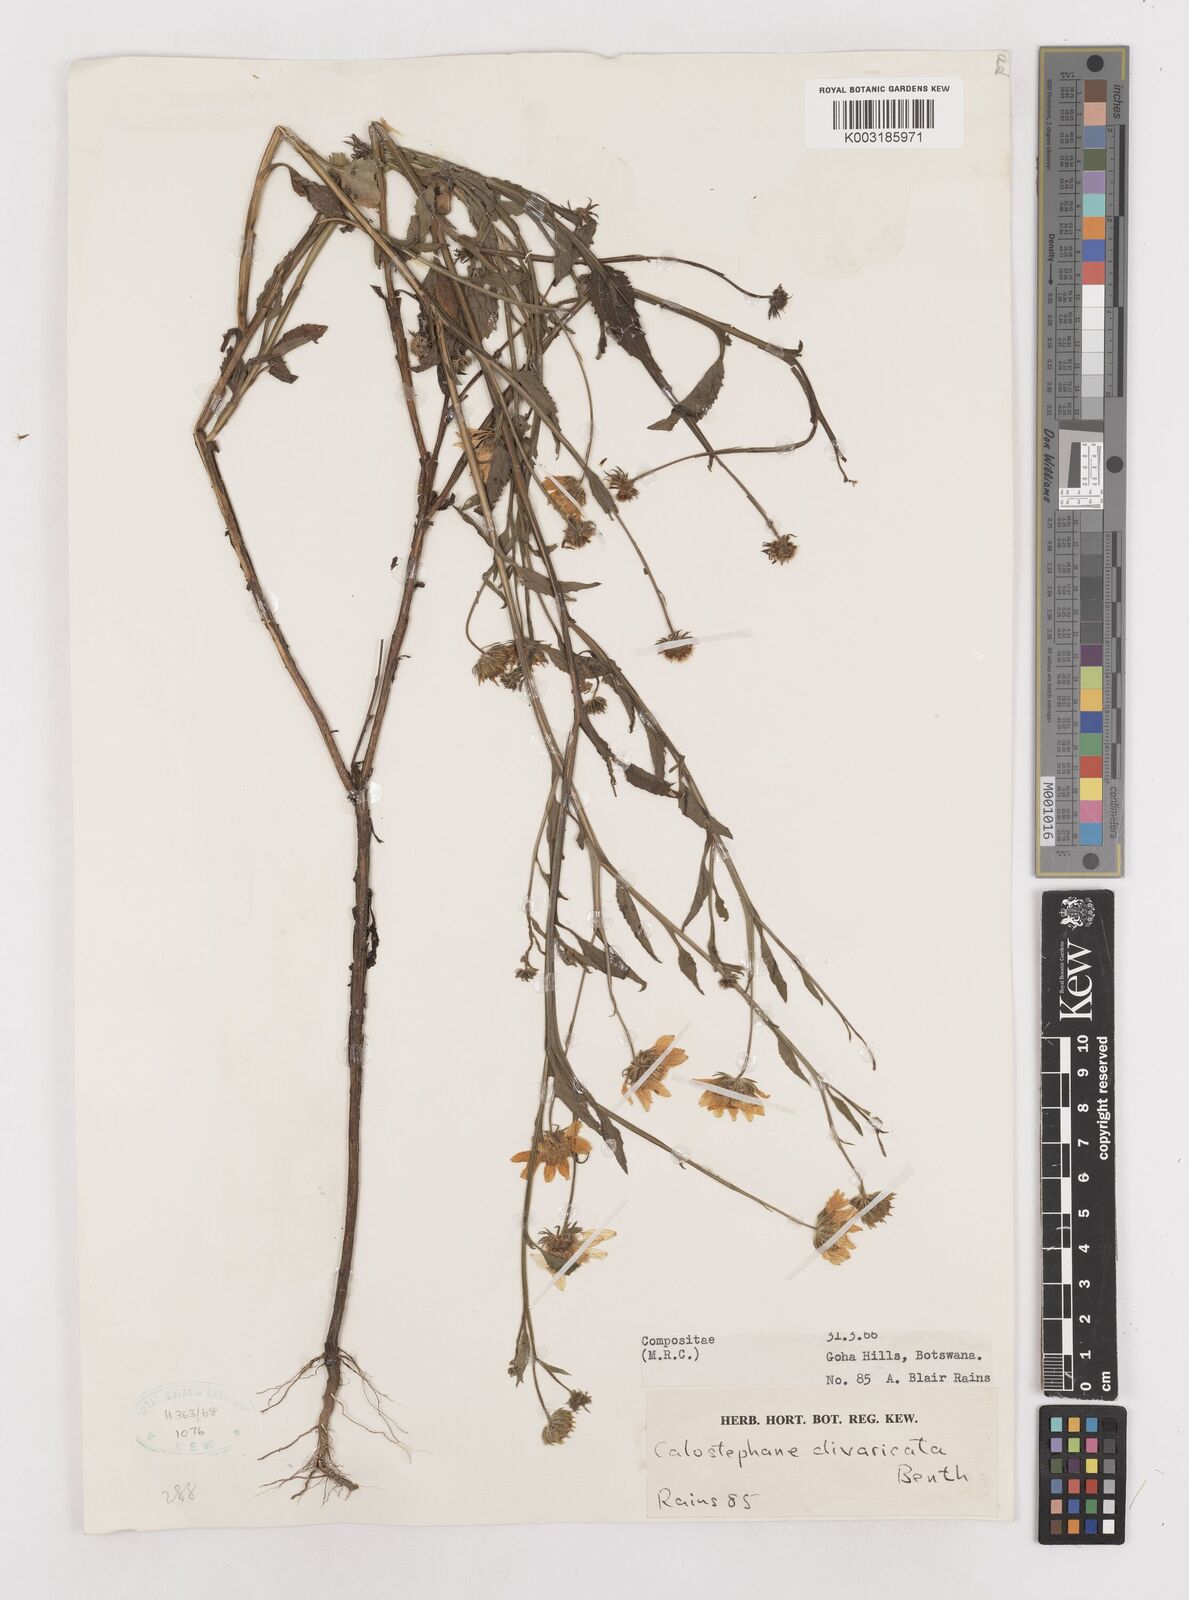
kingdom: Plantae
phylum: Tracheophyta
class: Magnoliopsida
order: Asterales
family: Asteraceae
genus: Calostephane
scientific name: Calostephane divaricata
